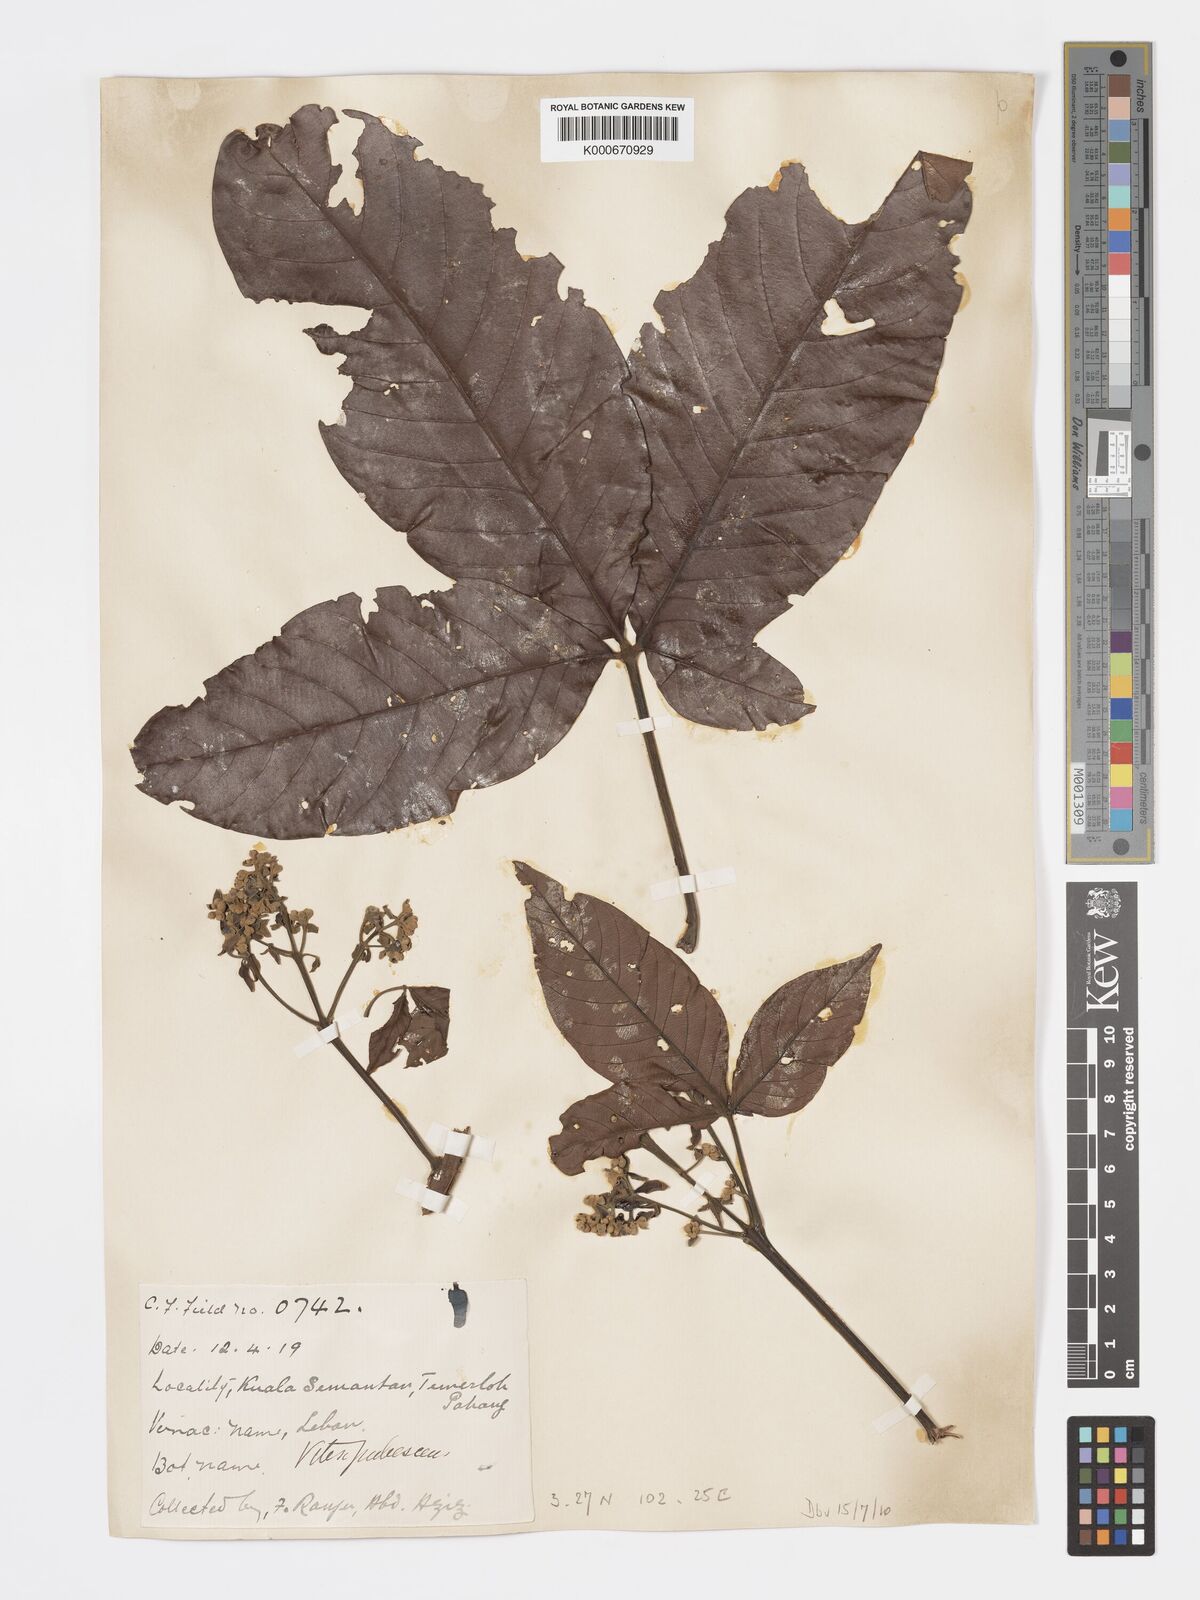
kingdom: Plantae
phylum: Tracheophyta
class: Magnoliopsida
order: Lamiales
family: Lamiaceae
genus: Vitex
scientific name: Vitex pinnata
